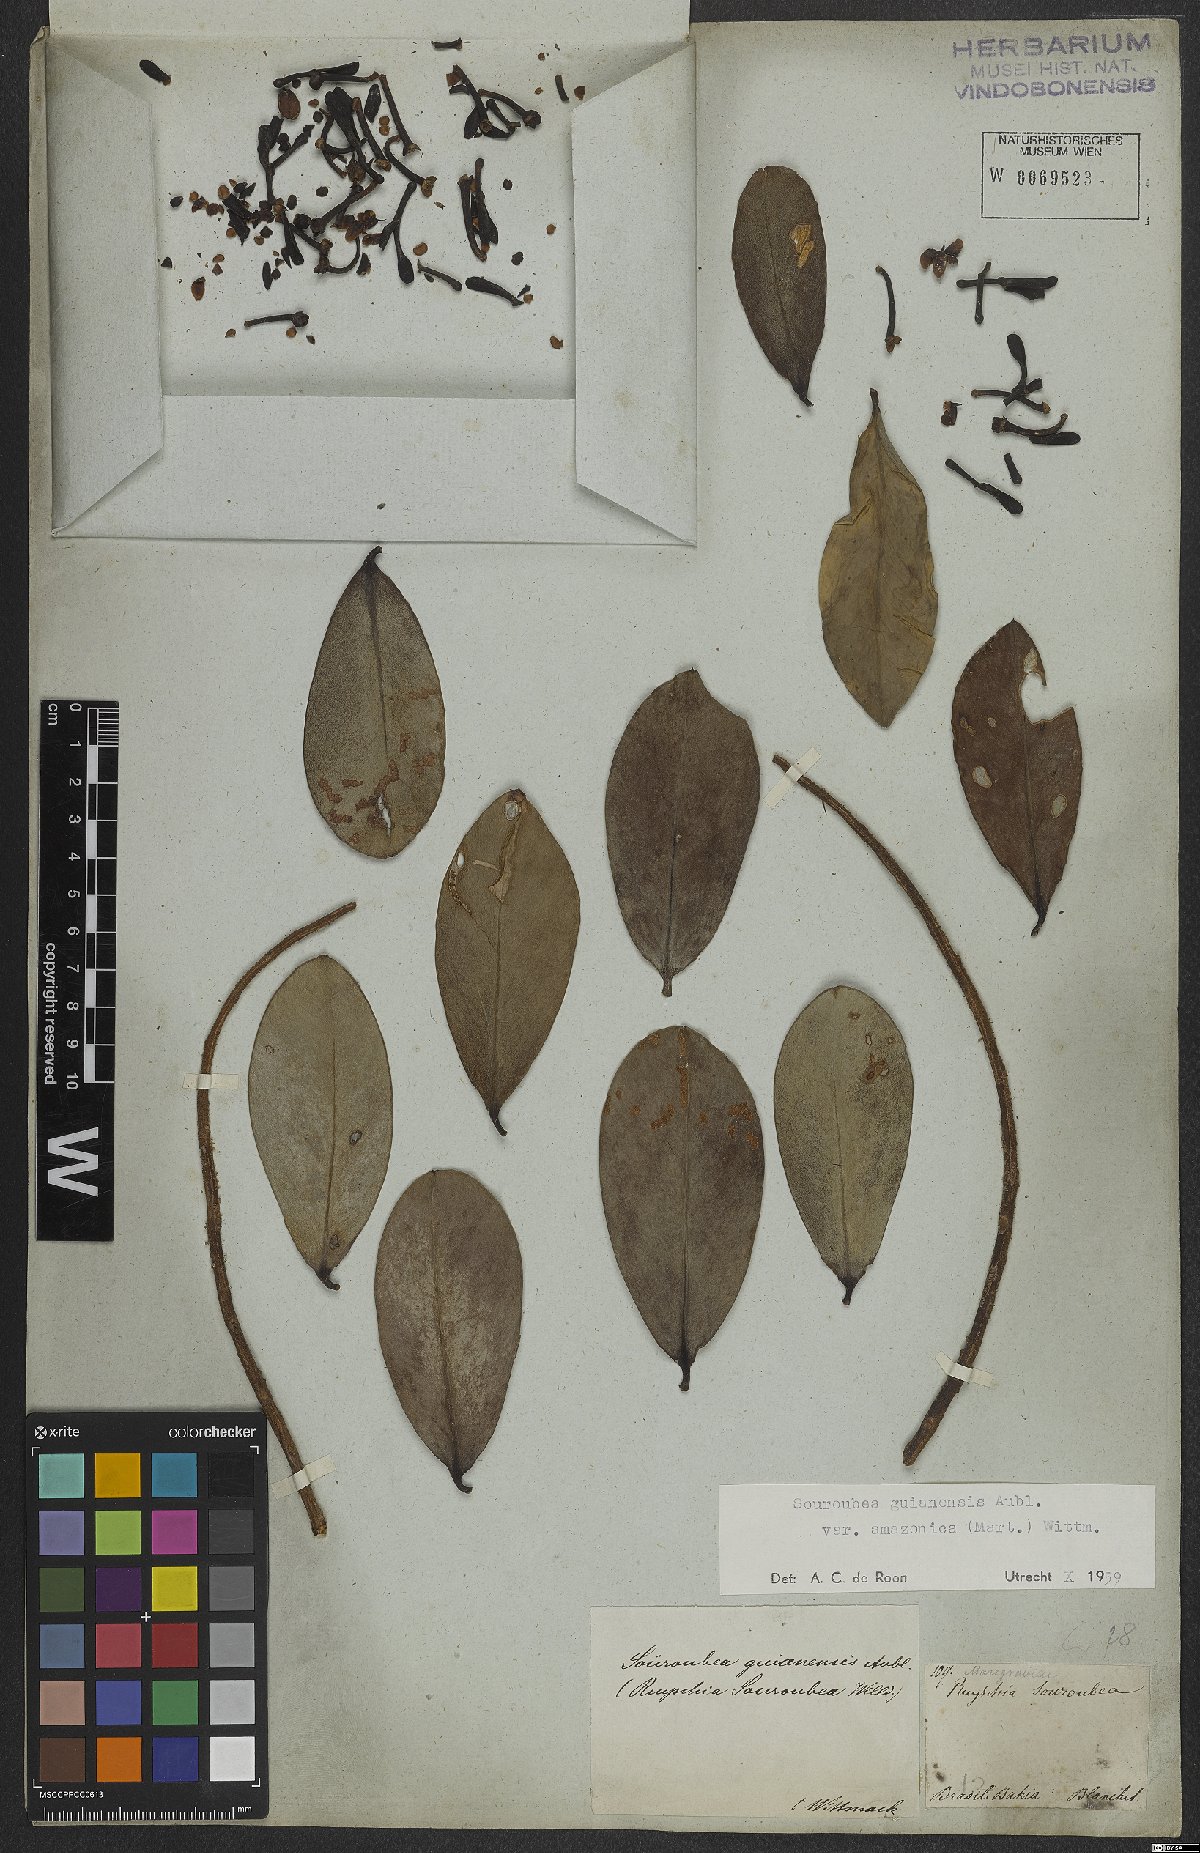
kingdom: Plantae
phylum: Tracheophyta
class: Magnoliopsida
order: Ericales
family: Marcgraviaceae
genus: Souroubea
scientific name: Souroubea guianensis
